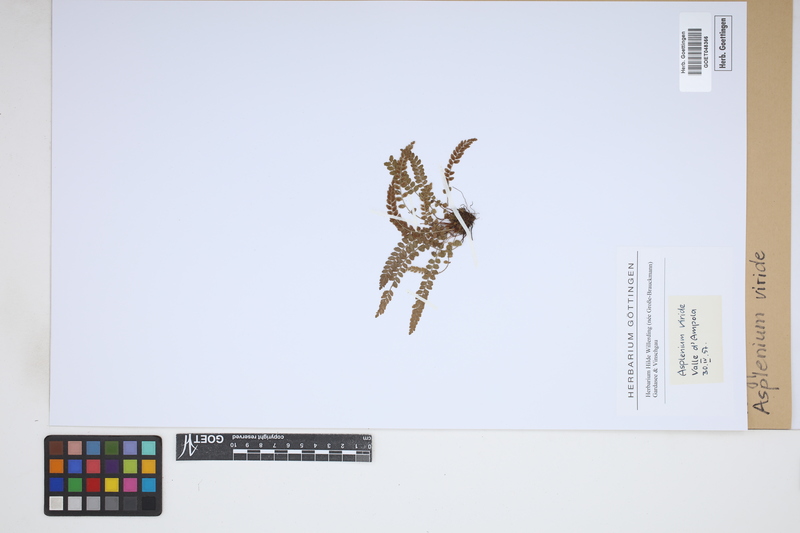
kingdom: Plantae
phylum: Tracheophyta
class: Polypodiopsida
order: Polypodiales
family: Aspleniaceae
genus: Asplenium
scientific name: Asplenium viride
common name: Green spleenwort
